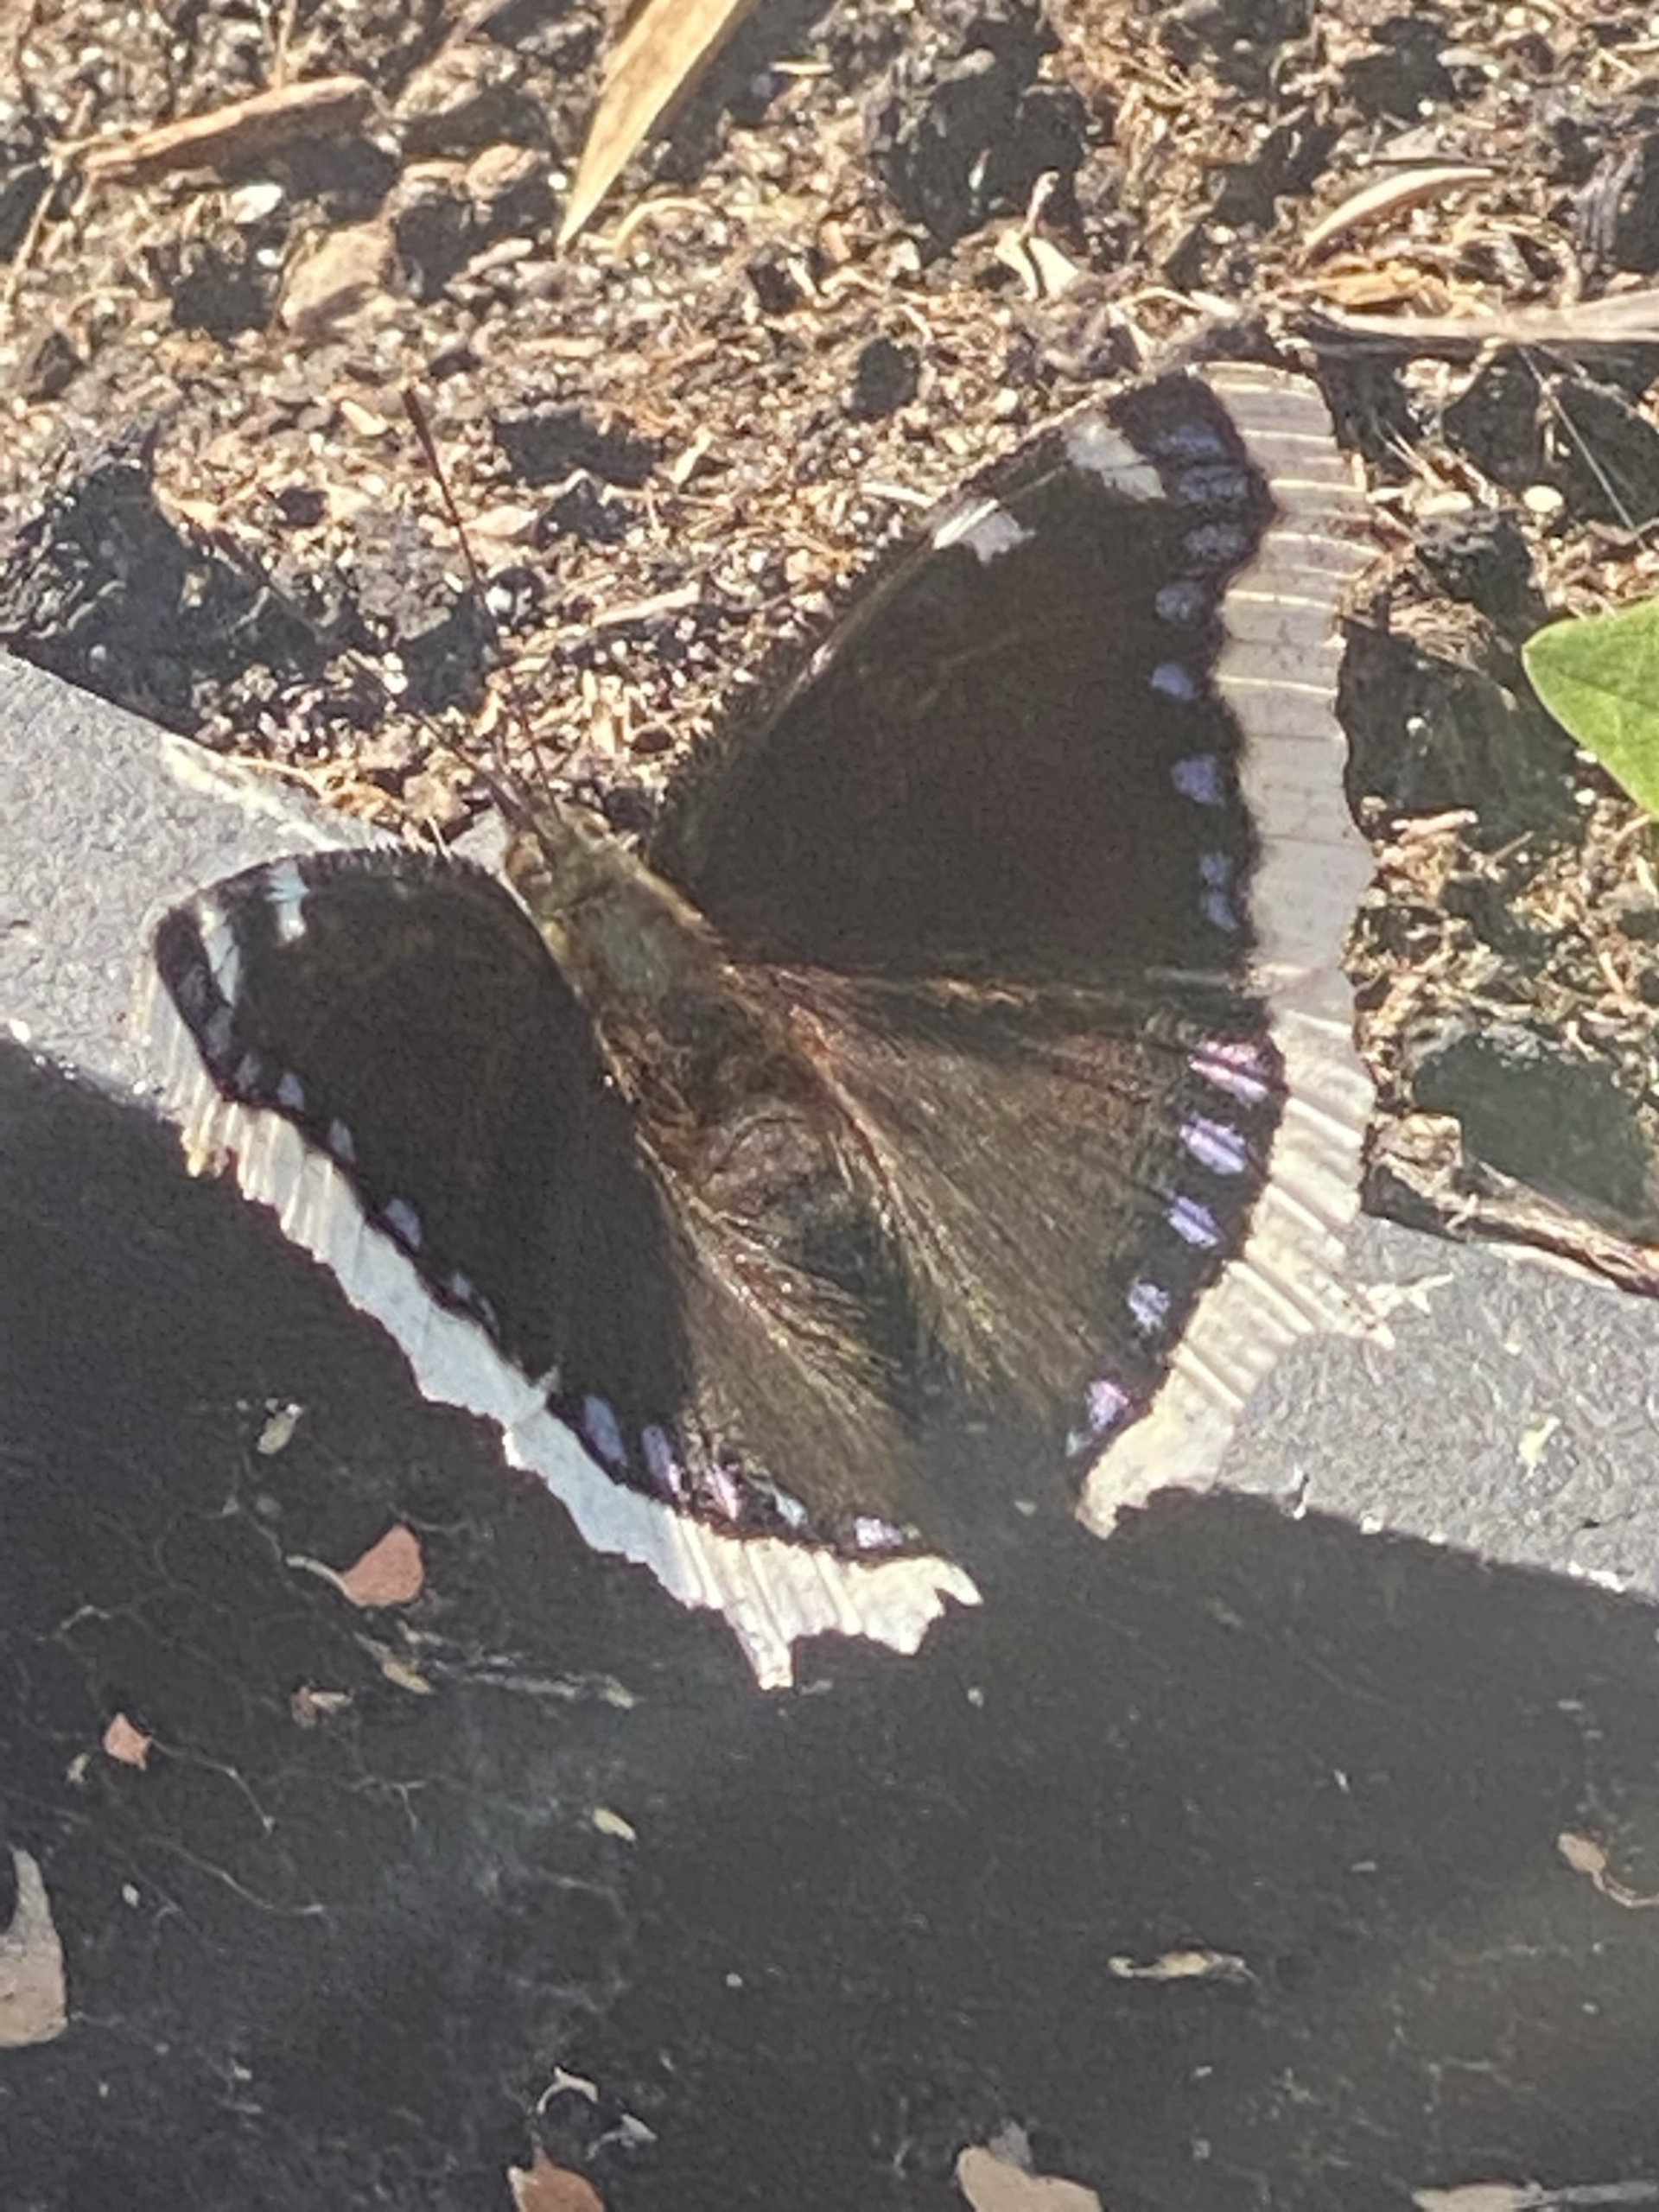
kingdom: Animalia
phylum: Arthropoda
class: Insecta
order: Lepidoptera
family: Nymphalidae
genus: Nymphalis
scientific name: Nymphalis antiopa
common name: Sørgekåbe
